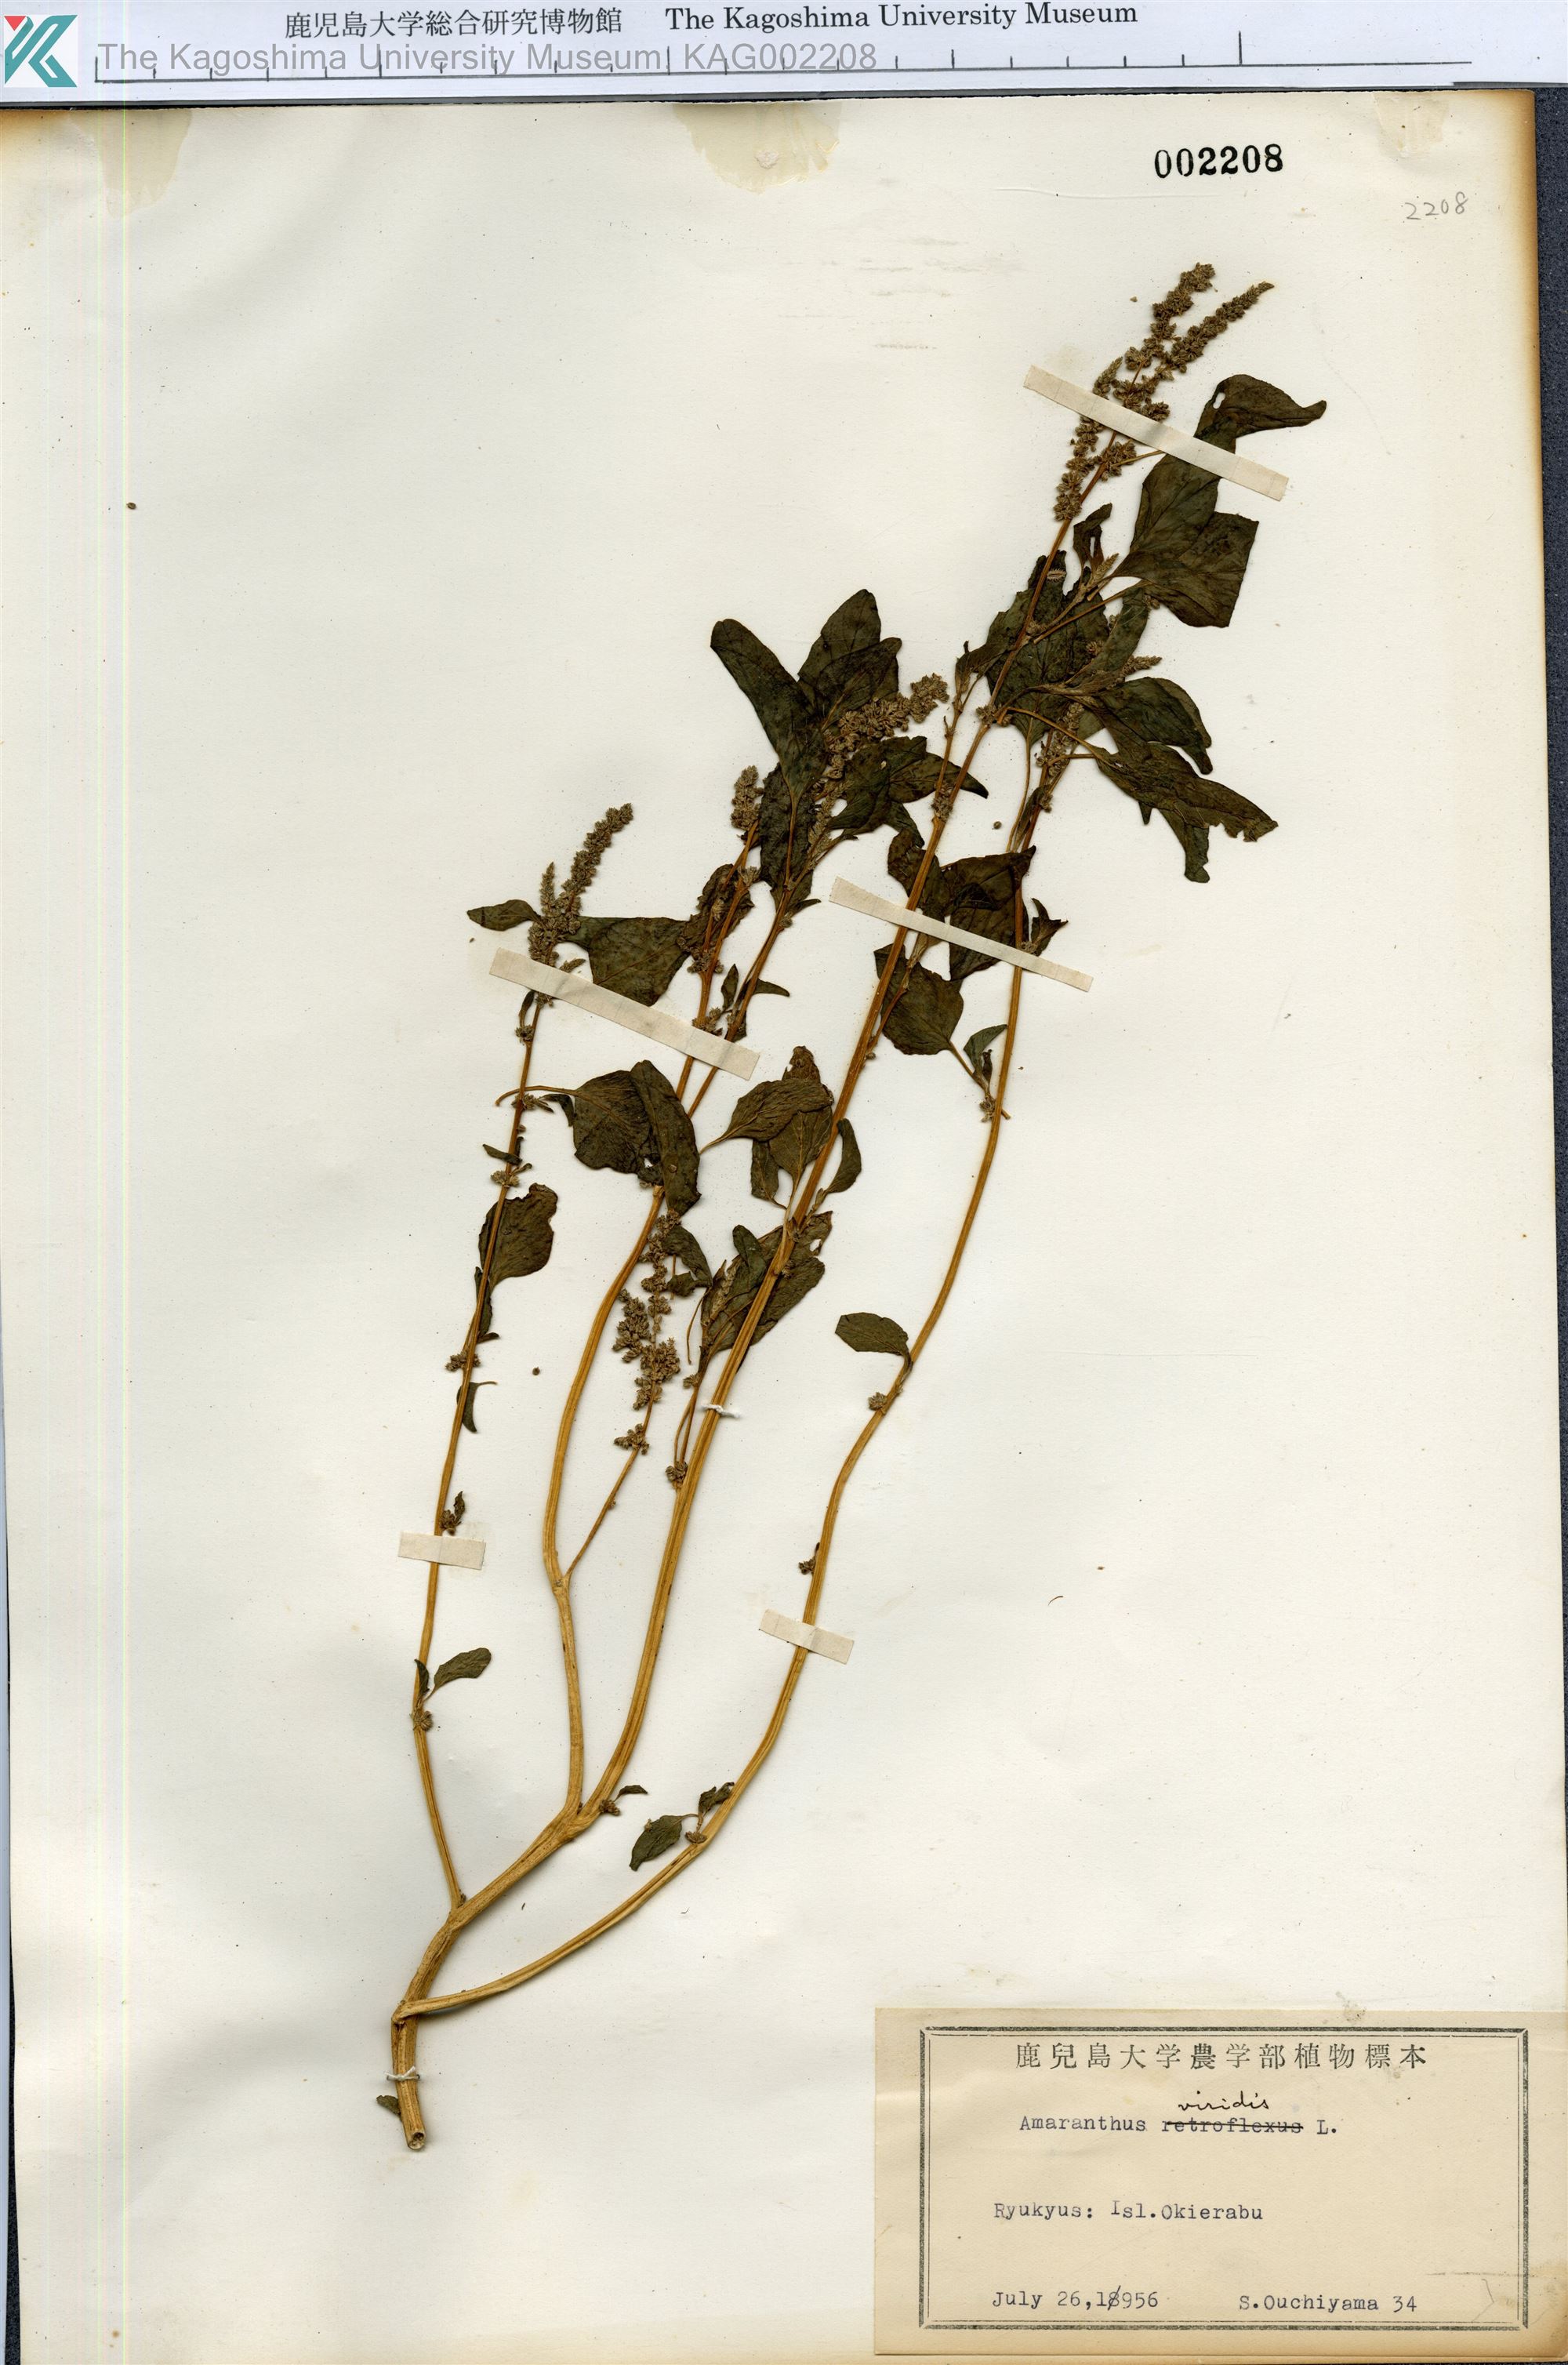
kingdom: Plantae
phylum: Tracheophyta
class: Magnoliopsida
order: Caryophyllales
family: Amaranthaceae
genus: Amaranthus
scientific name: Amaranthus viridis
